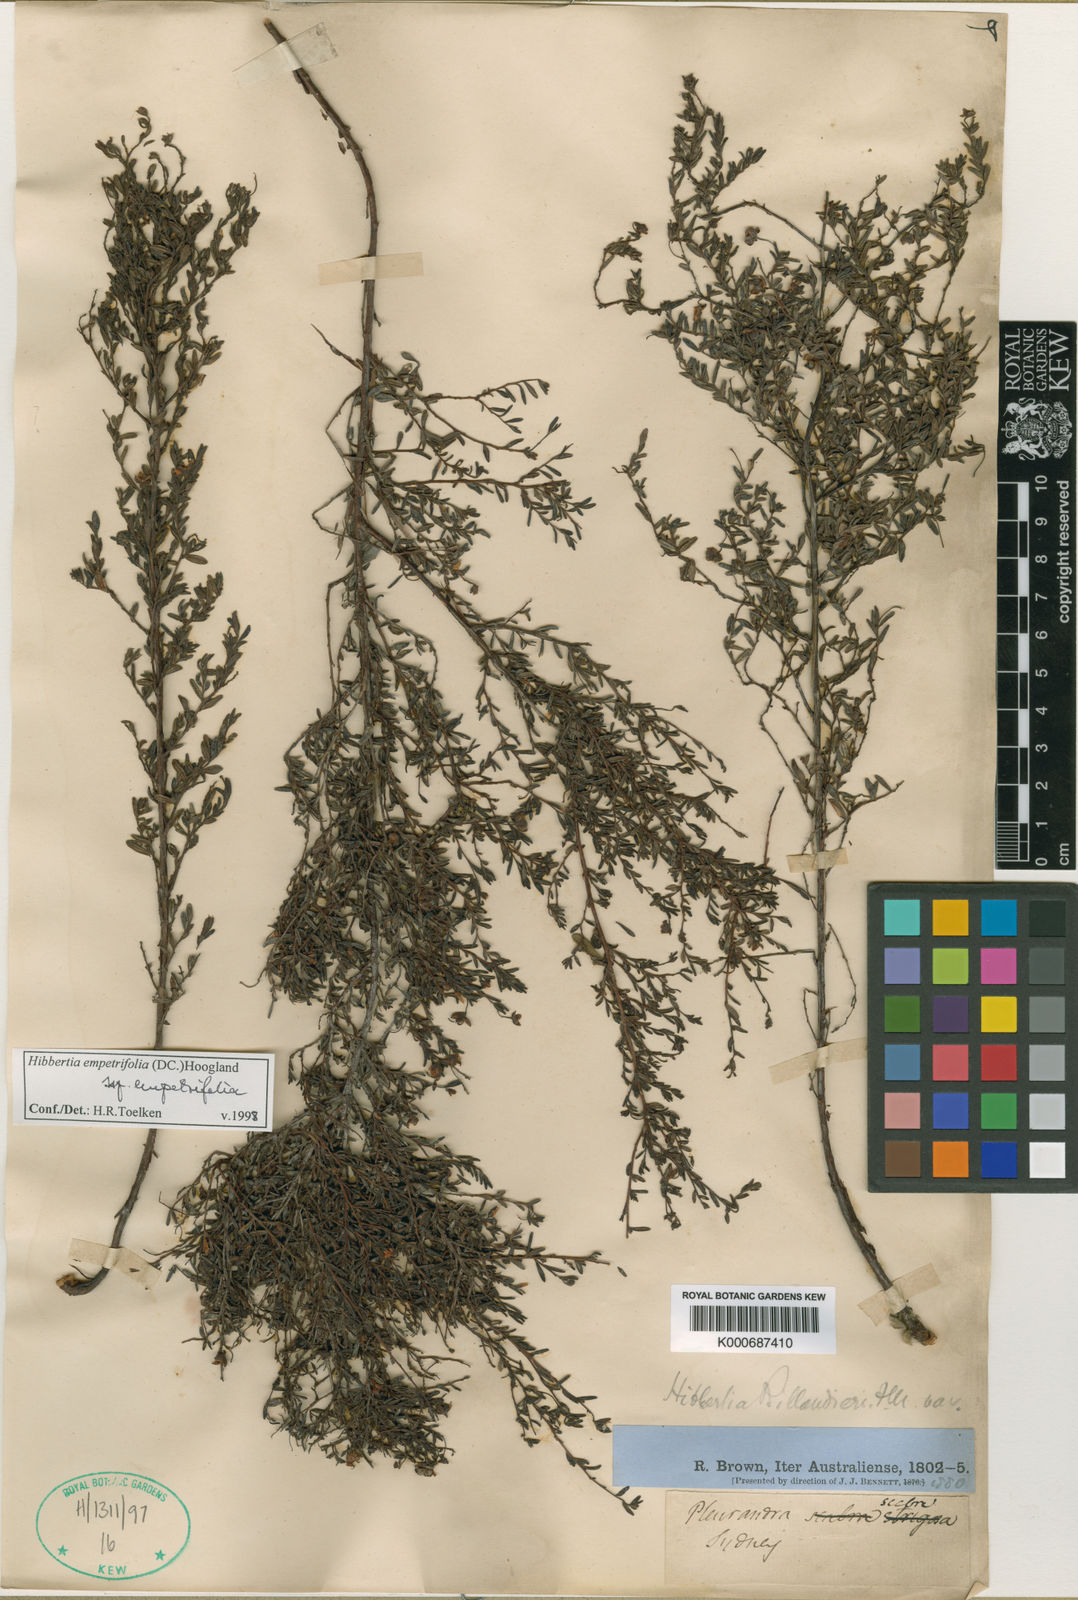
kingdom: Plantae
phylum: Tracheophyta
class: Magnoliopsida
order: Dilleniales
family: Dilleniaceae
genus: Hibbertia
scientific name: Hibbertia aspera
